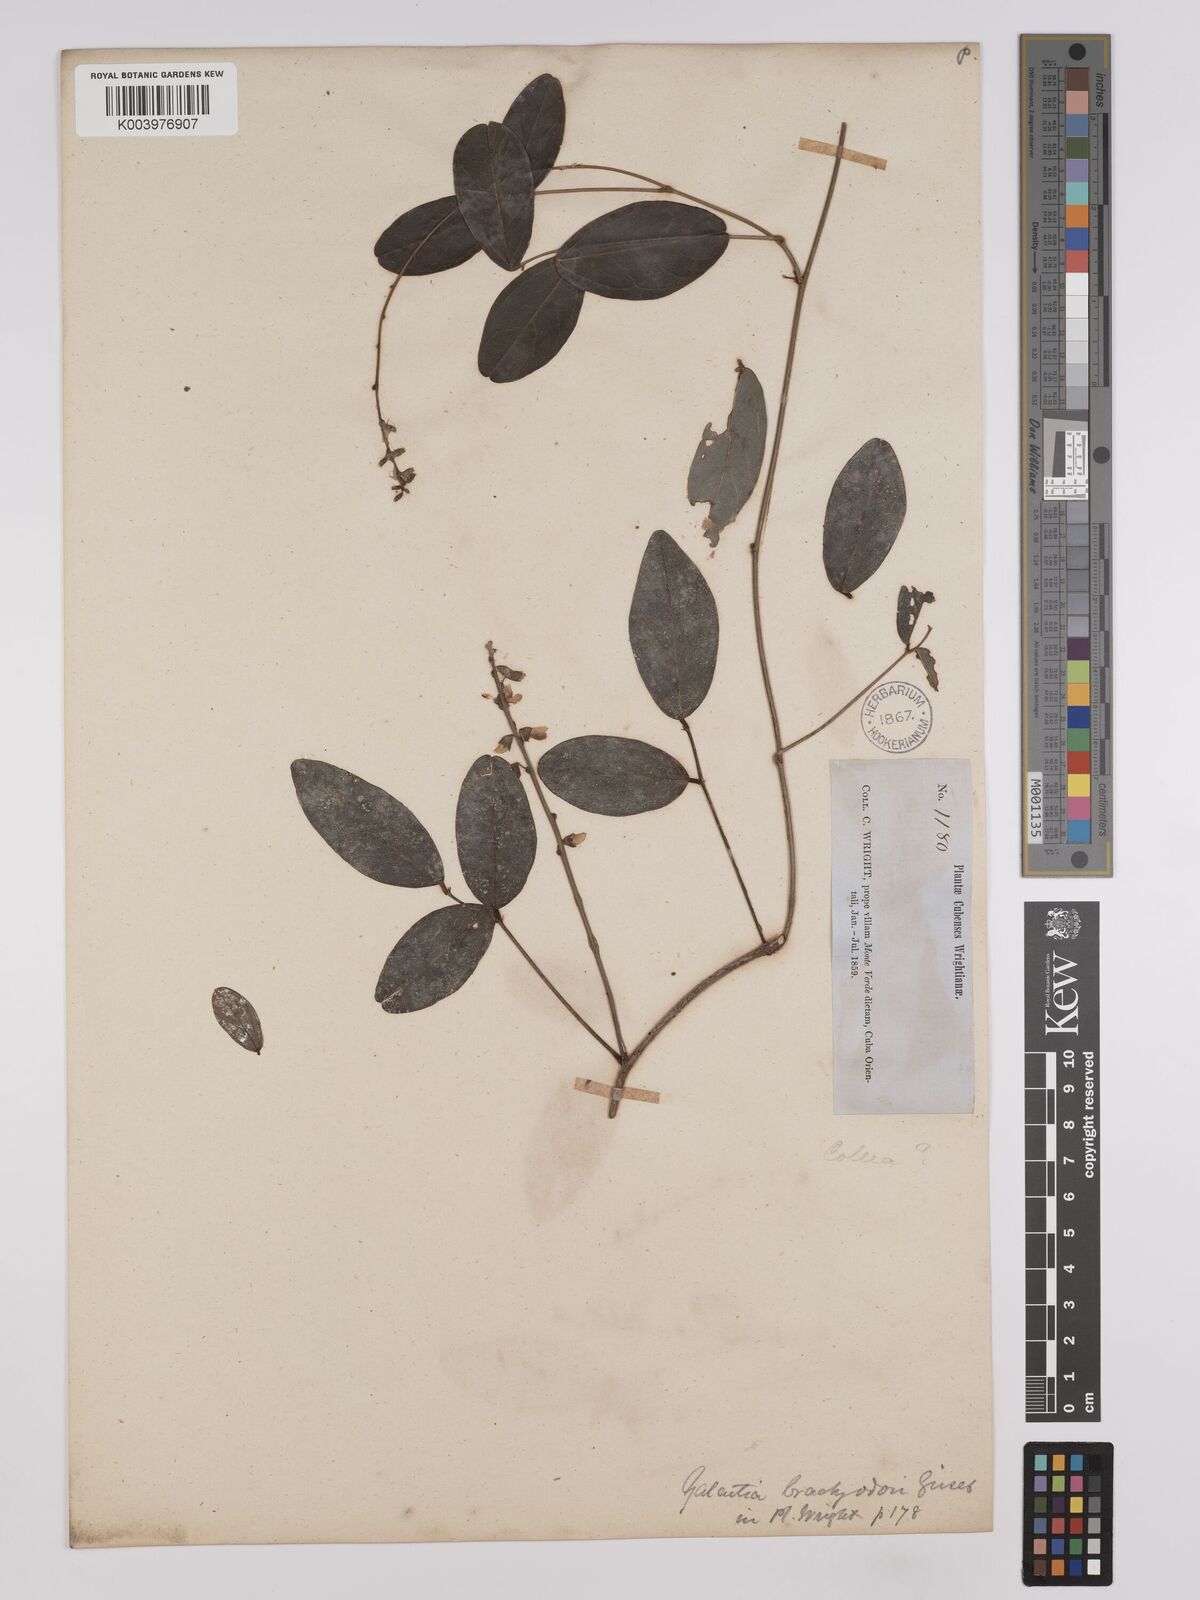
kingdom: Plantae
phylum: Tracheophyta
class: Magnoliopsida
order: Fabales
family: Fabaceae
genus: Galactia
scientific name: Galactia brachyodon
